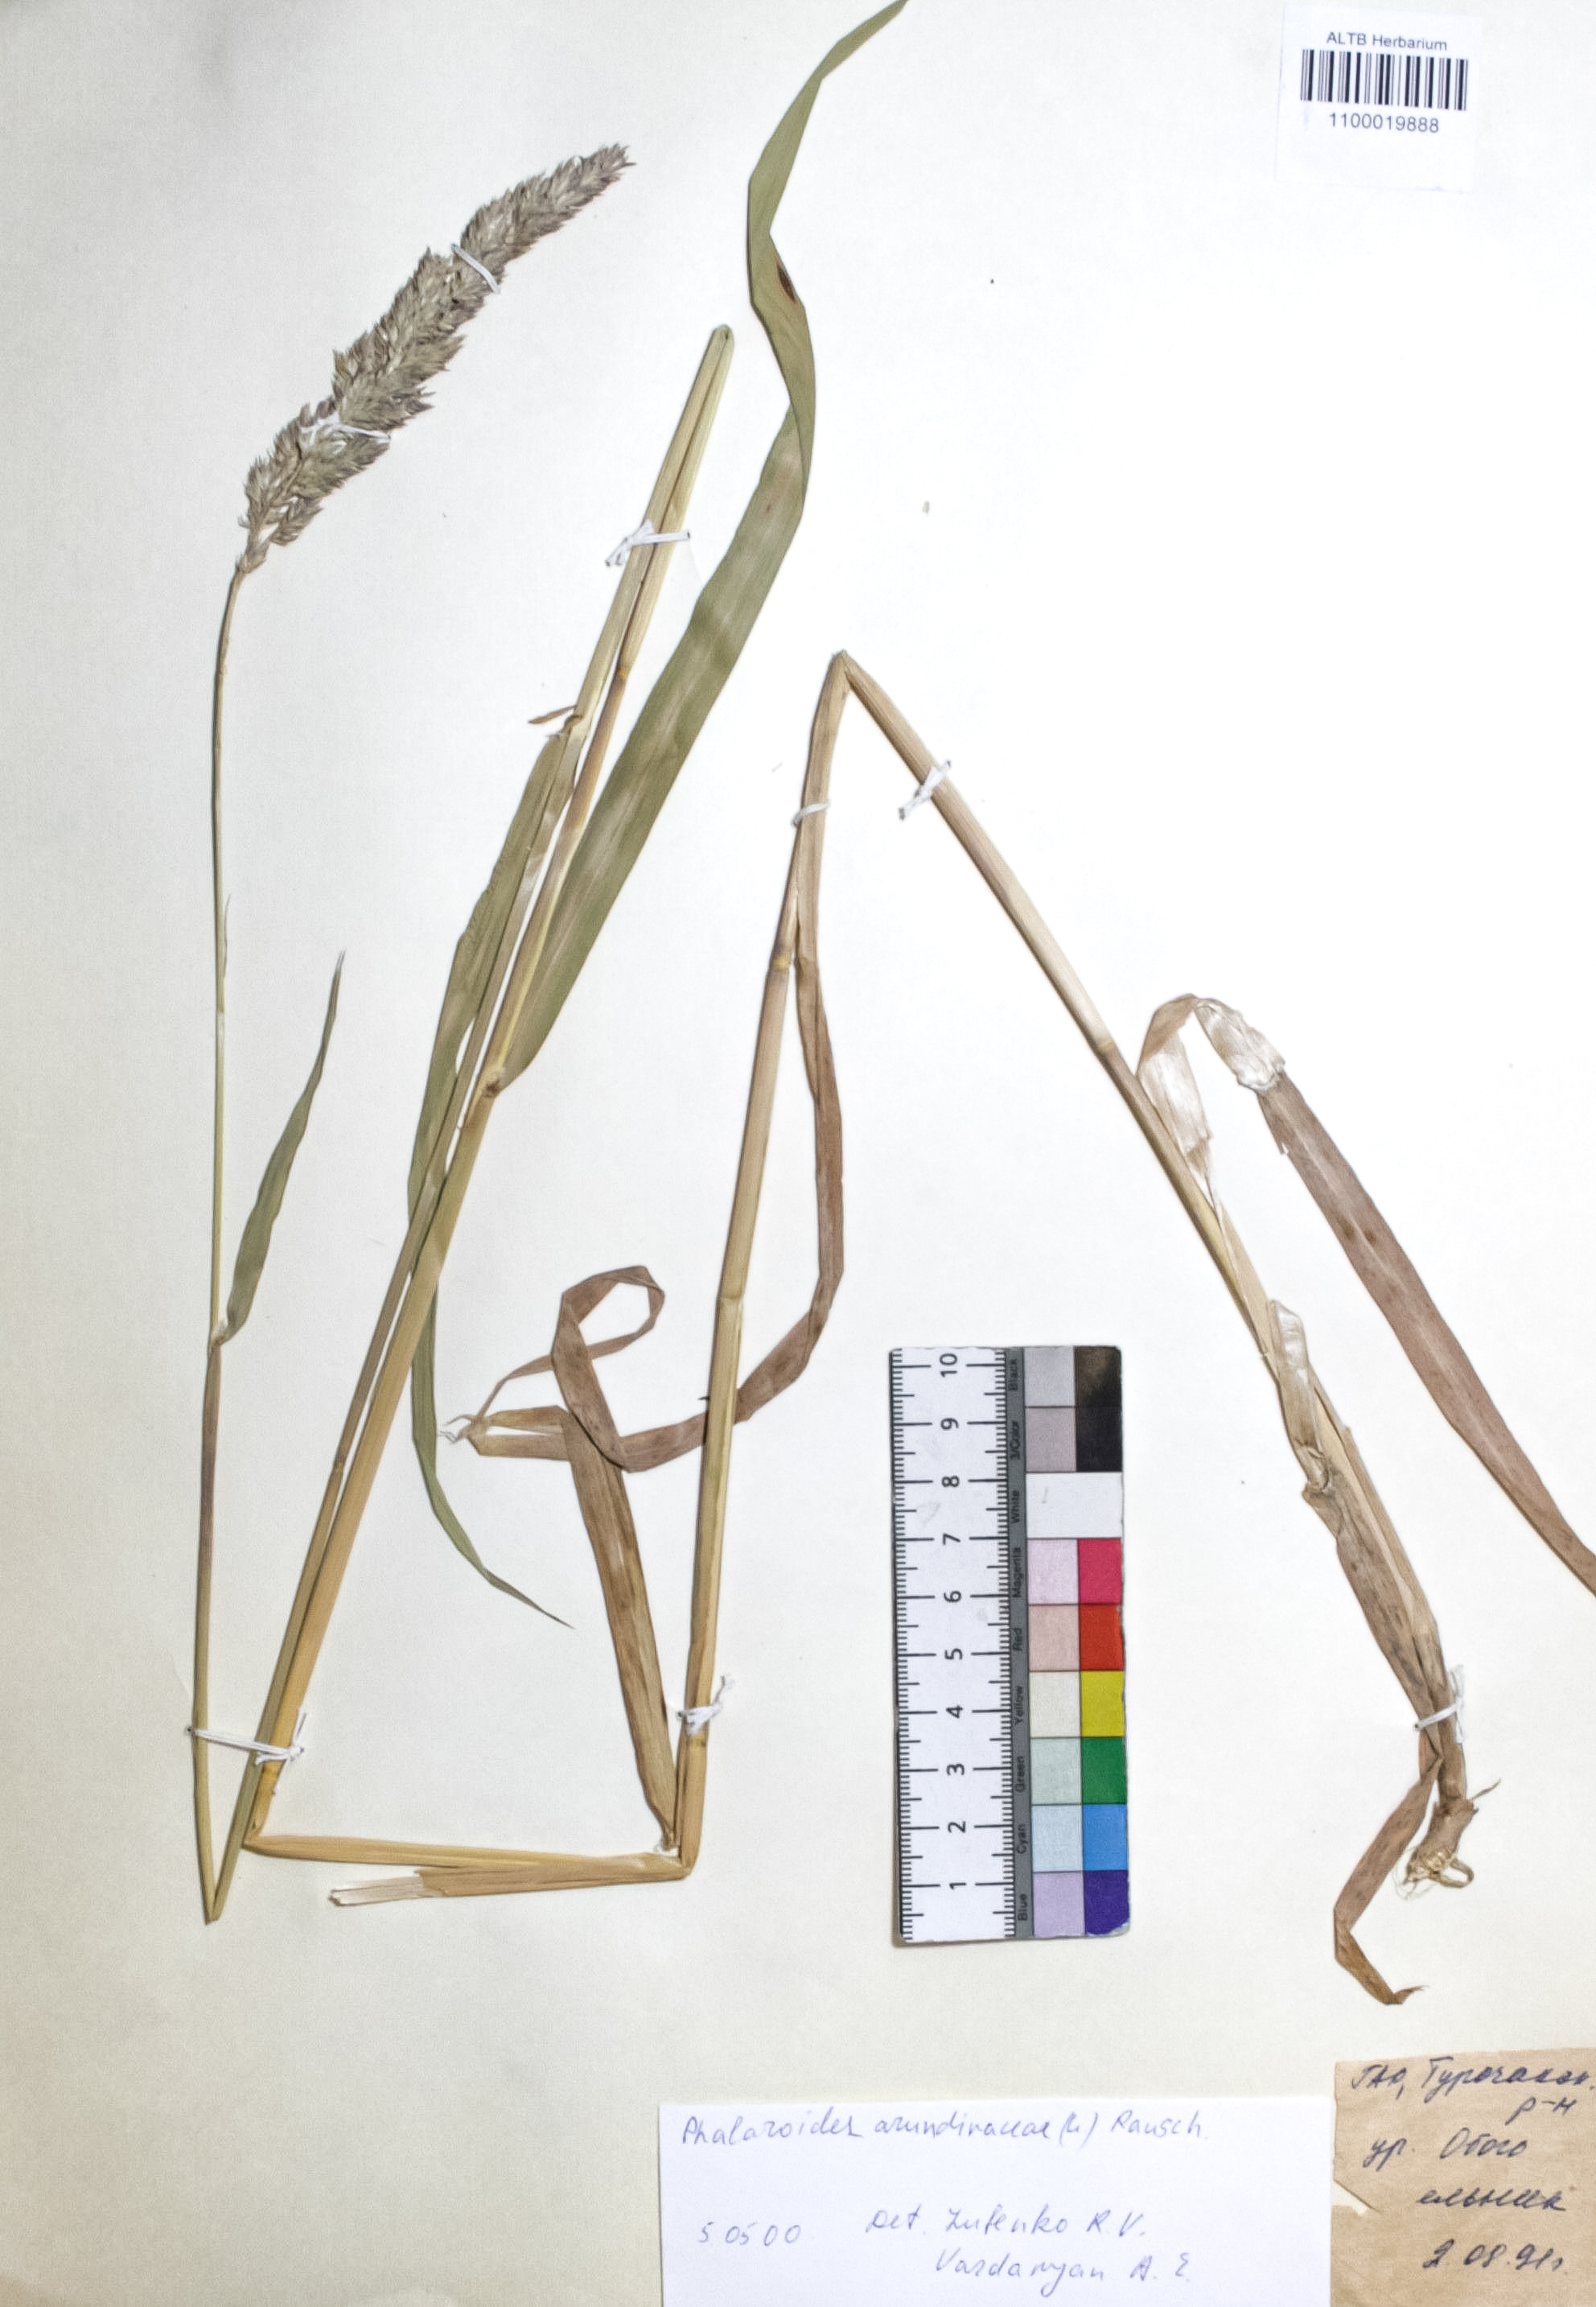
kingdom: Plantae
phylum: Tracheophyta
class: Liliopsida
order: Poales
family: Poaceae
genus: Phalaris
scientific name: Phalaris arundinacea
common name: Reed canary-grass
